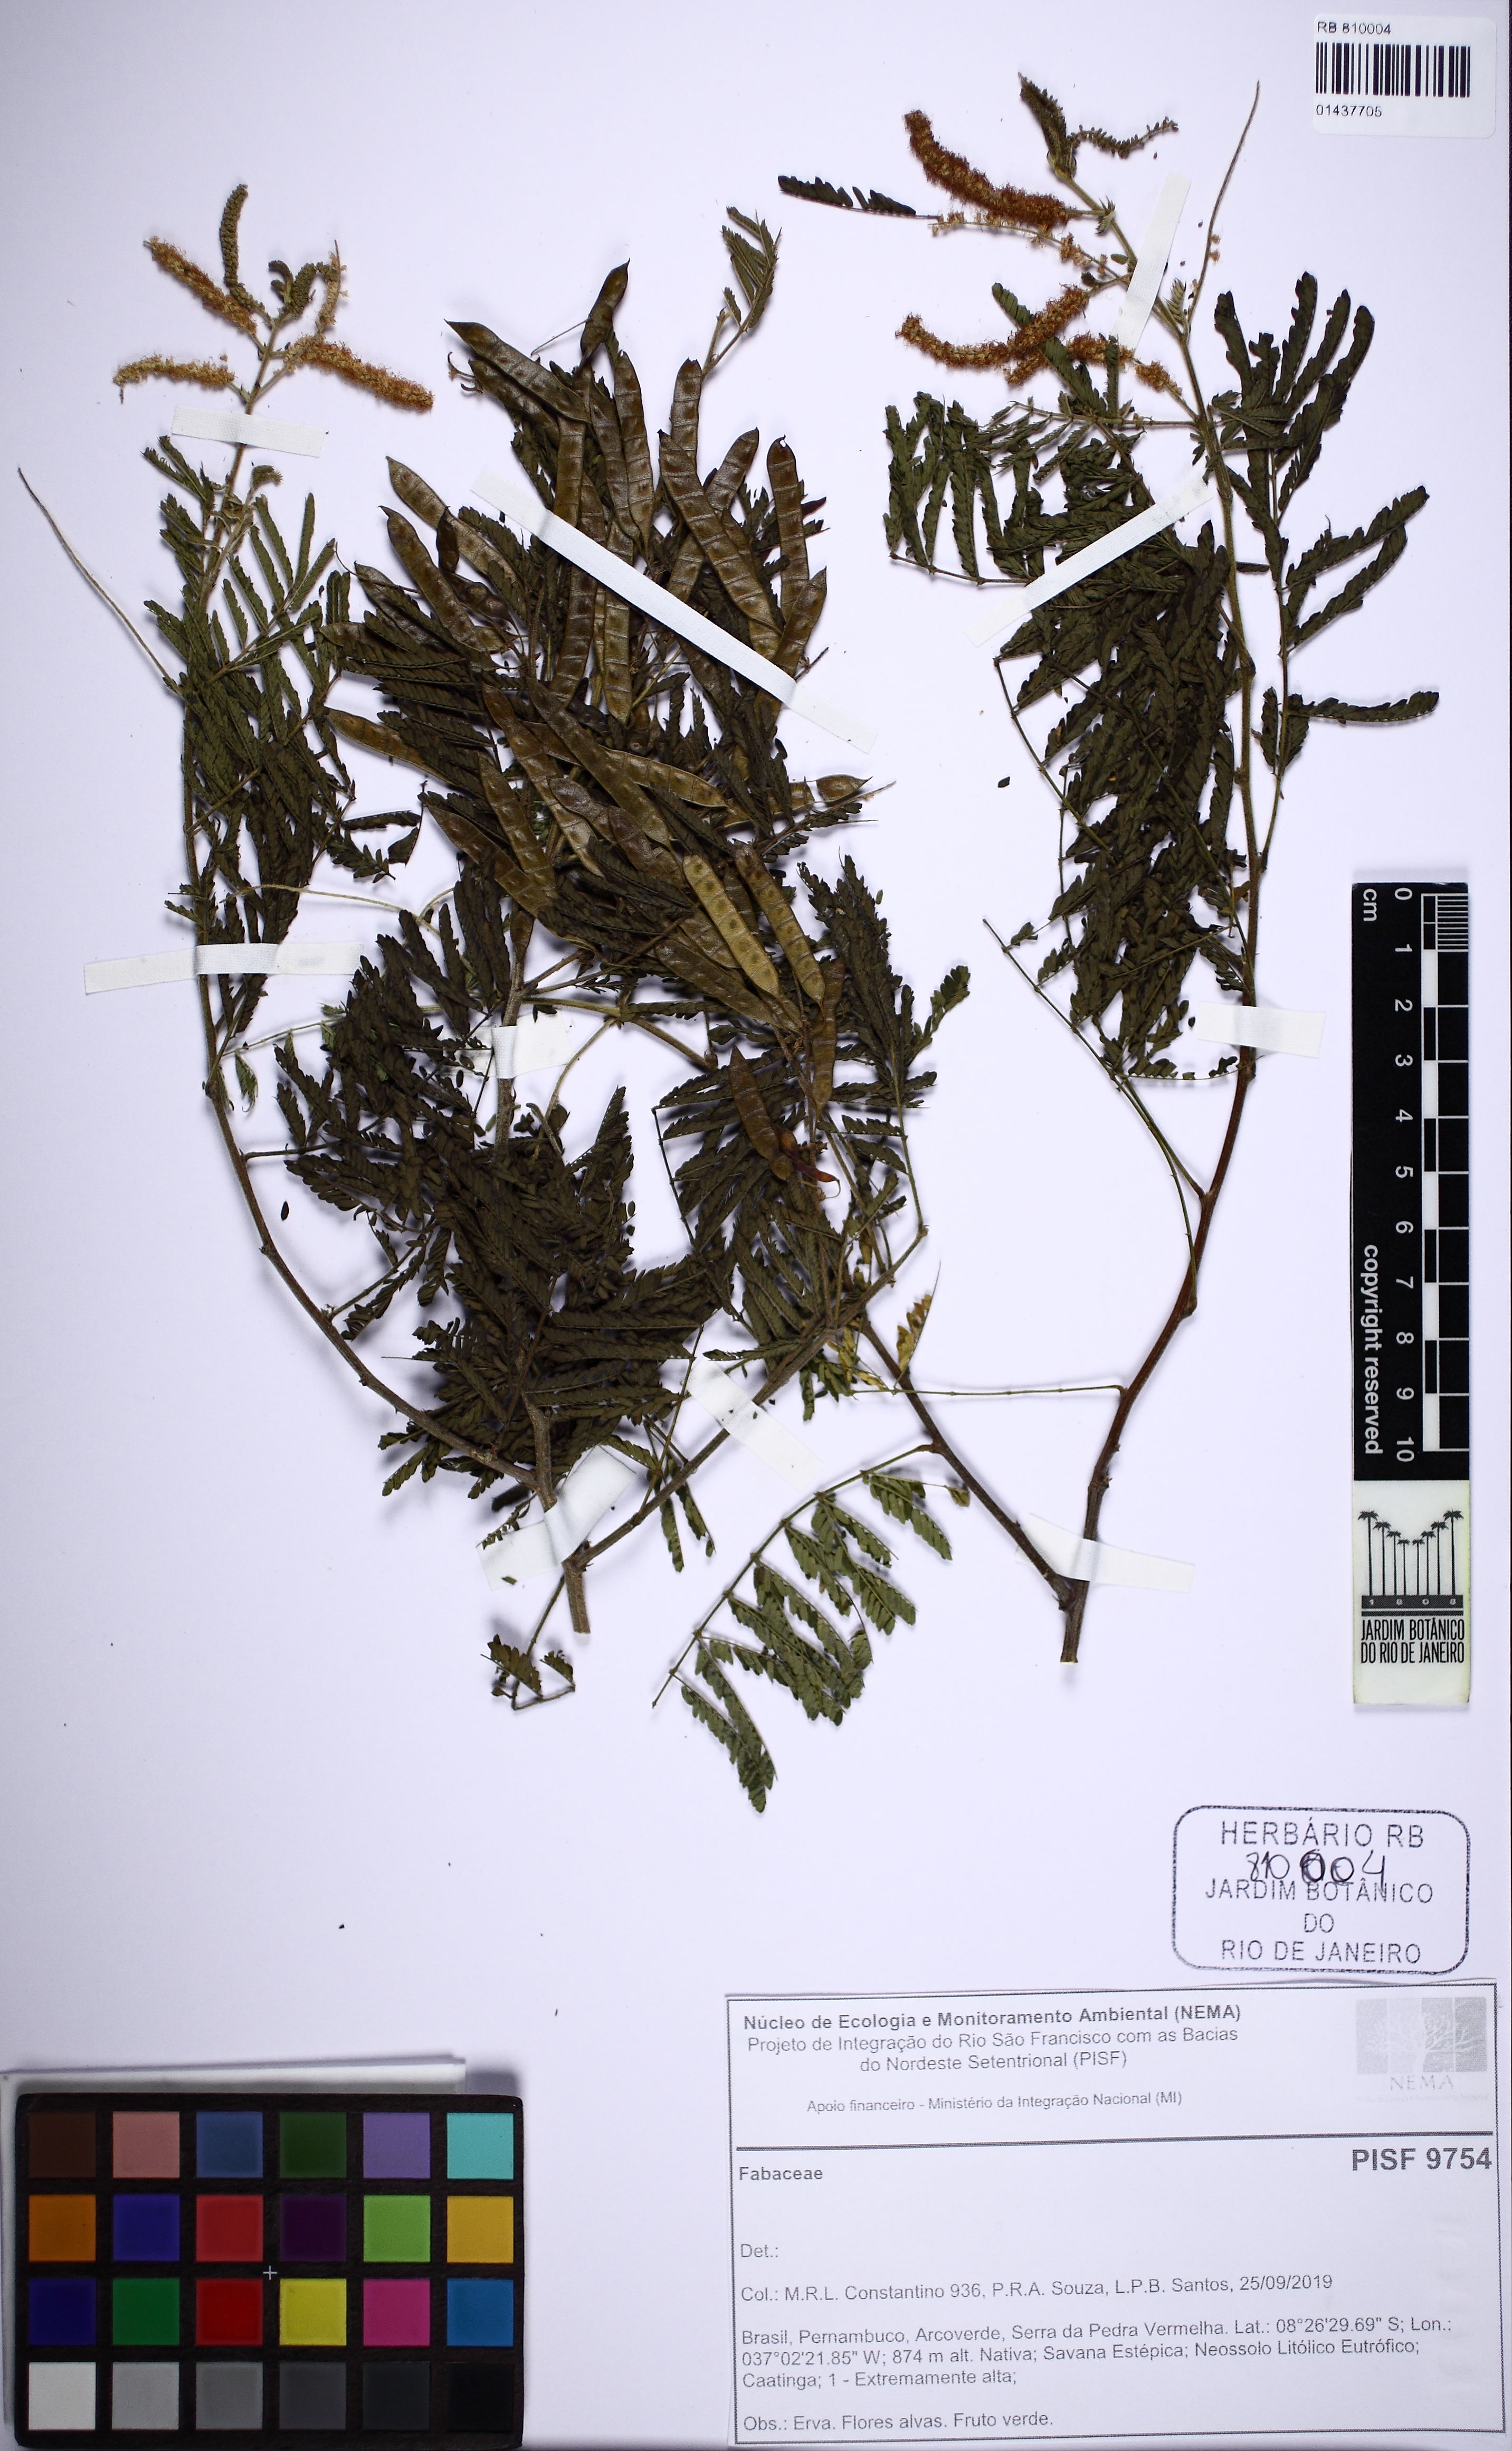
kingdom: Plantae
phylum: Tracheophyta
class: Magnoliopsida
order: Fabales
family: Fabaceae
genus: Mimosa
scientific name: Mimosa
